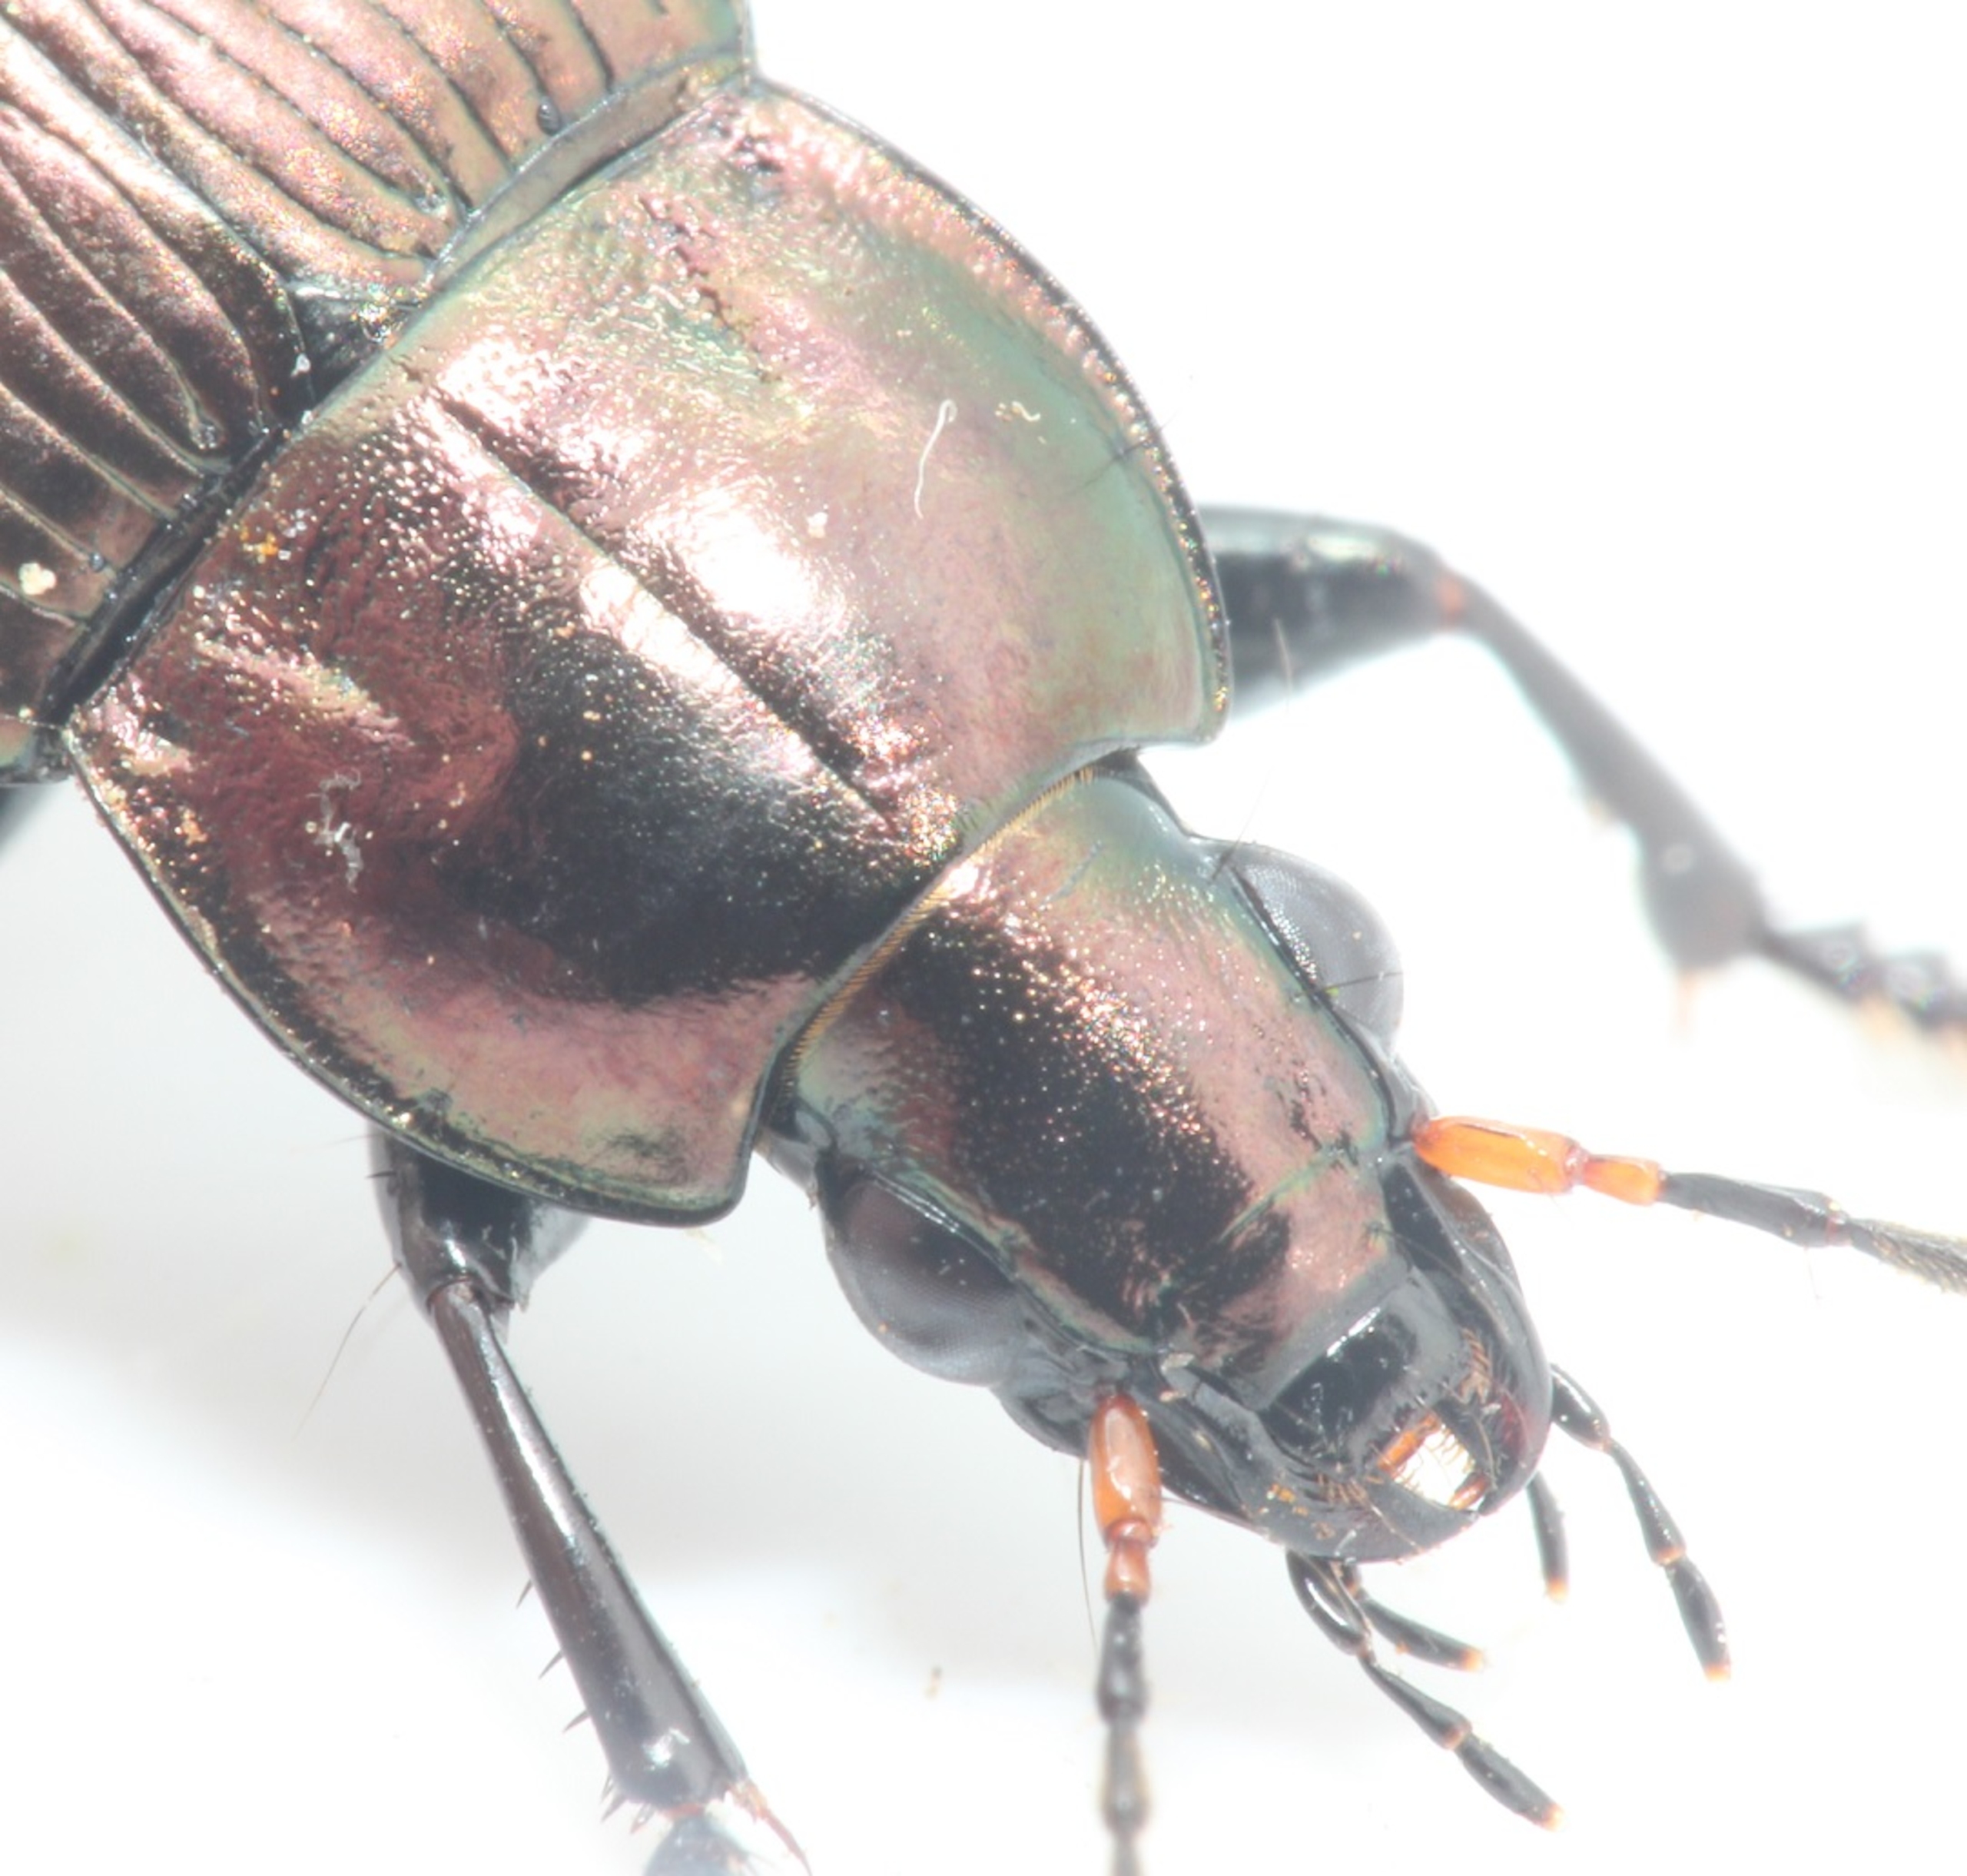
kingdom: Animalia
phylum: Arthropoda
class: Insecta
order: Coleoptera
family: Carabidae
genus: Poecilus
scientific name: Poecilus cupreus
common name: Bred metaljordløber
